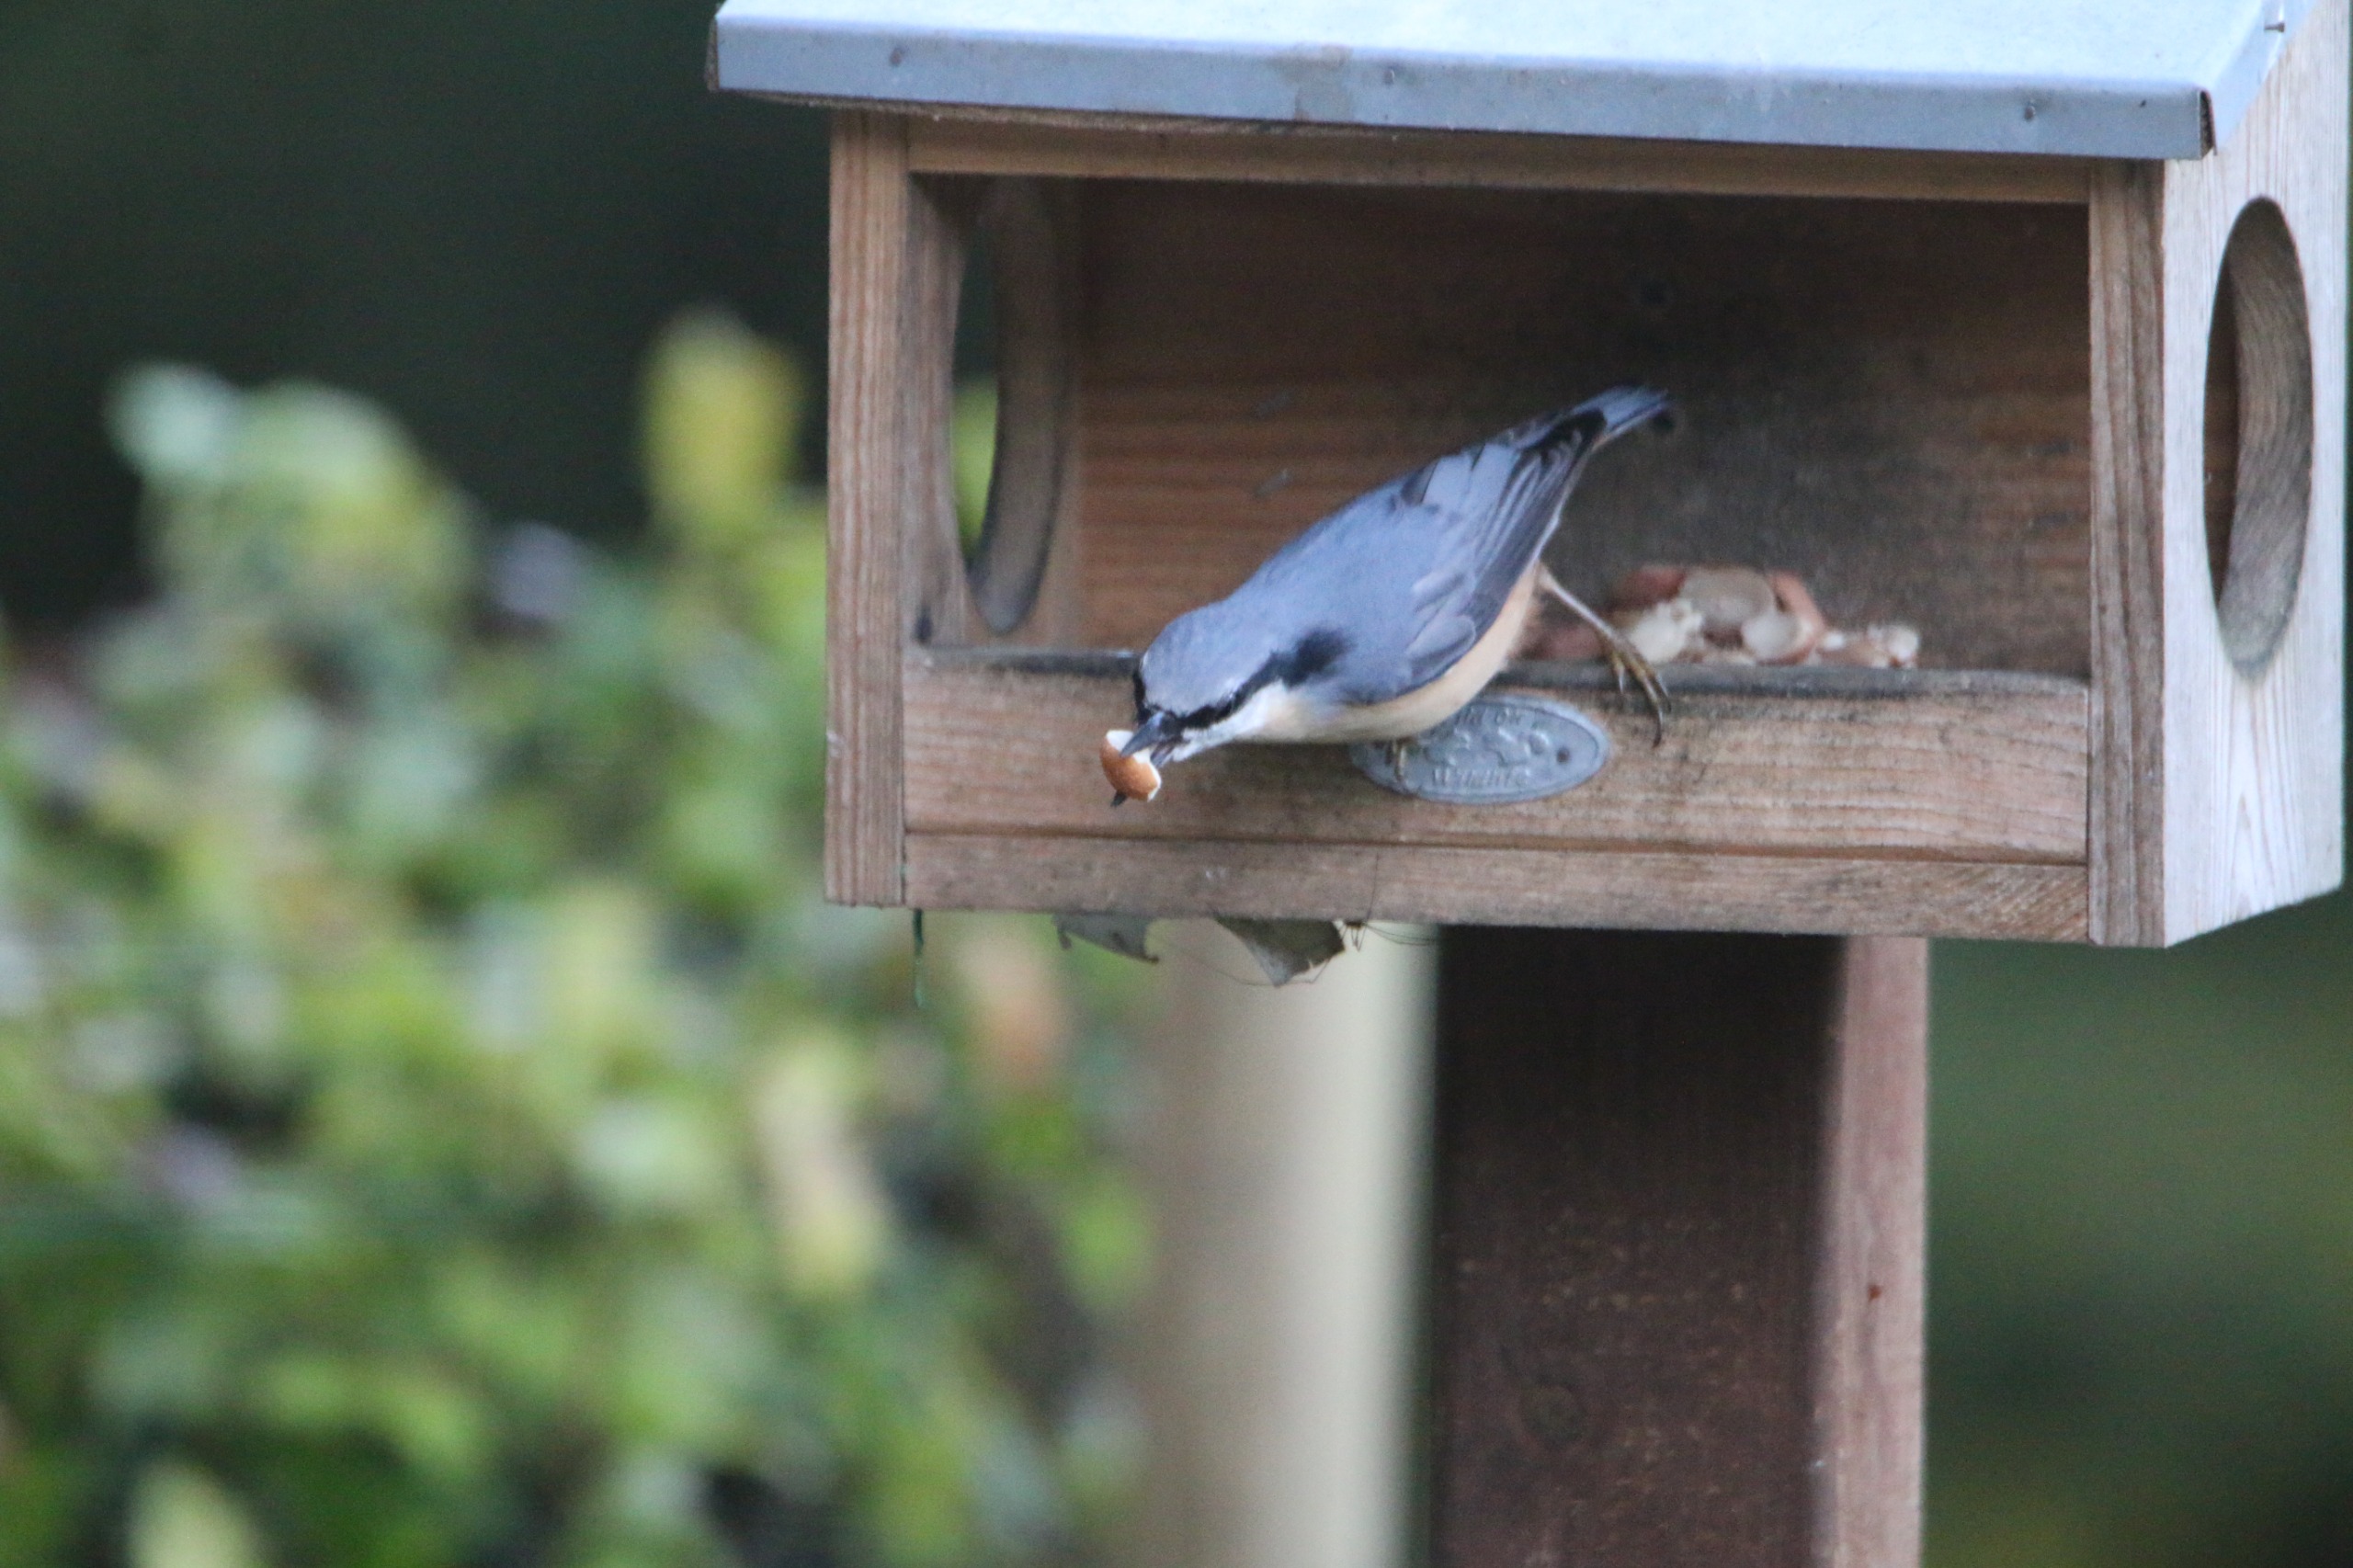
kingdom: Animalia
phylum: Chordata
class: Aves
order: Passeriformes
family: Sittidae
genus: Sitta
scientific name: Sitta europaea
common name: Spætmejse
